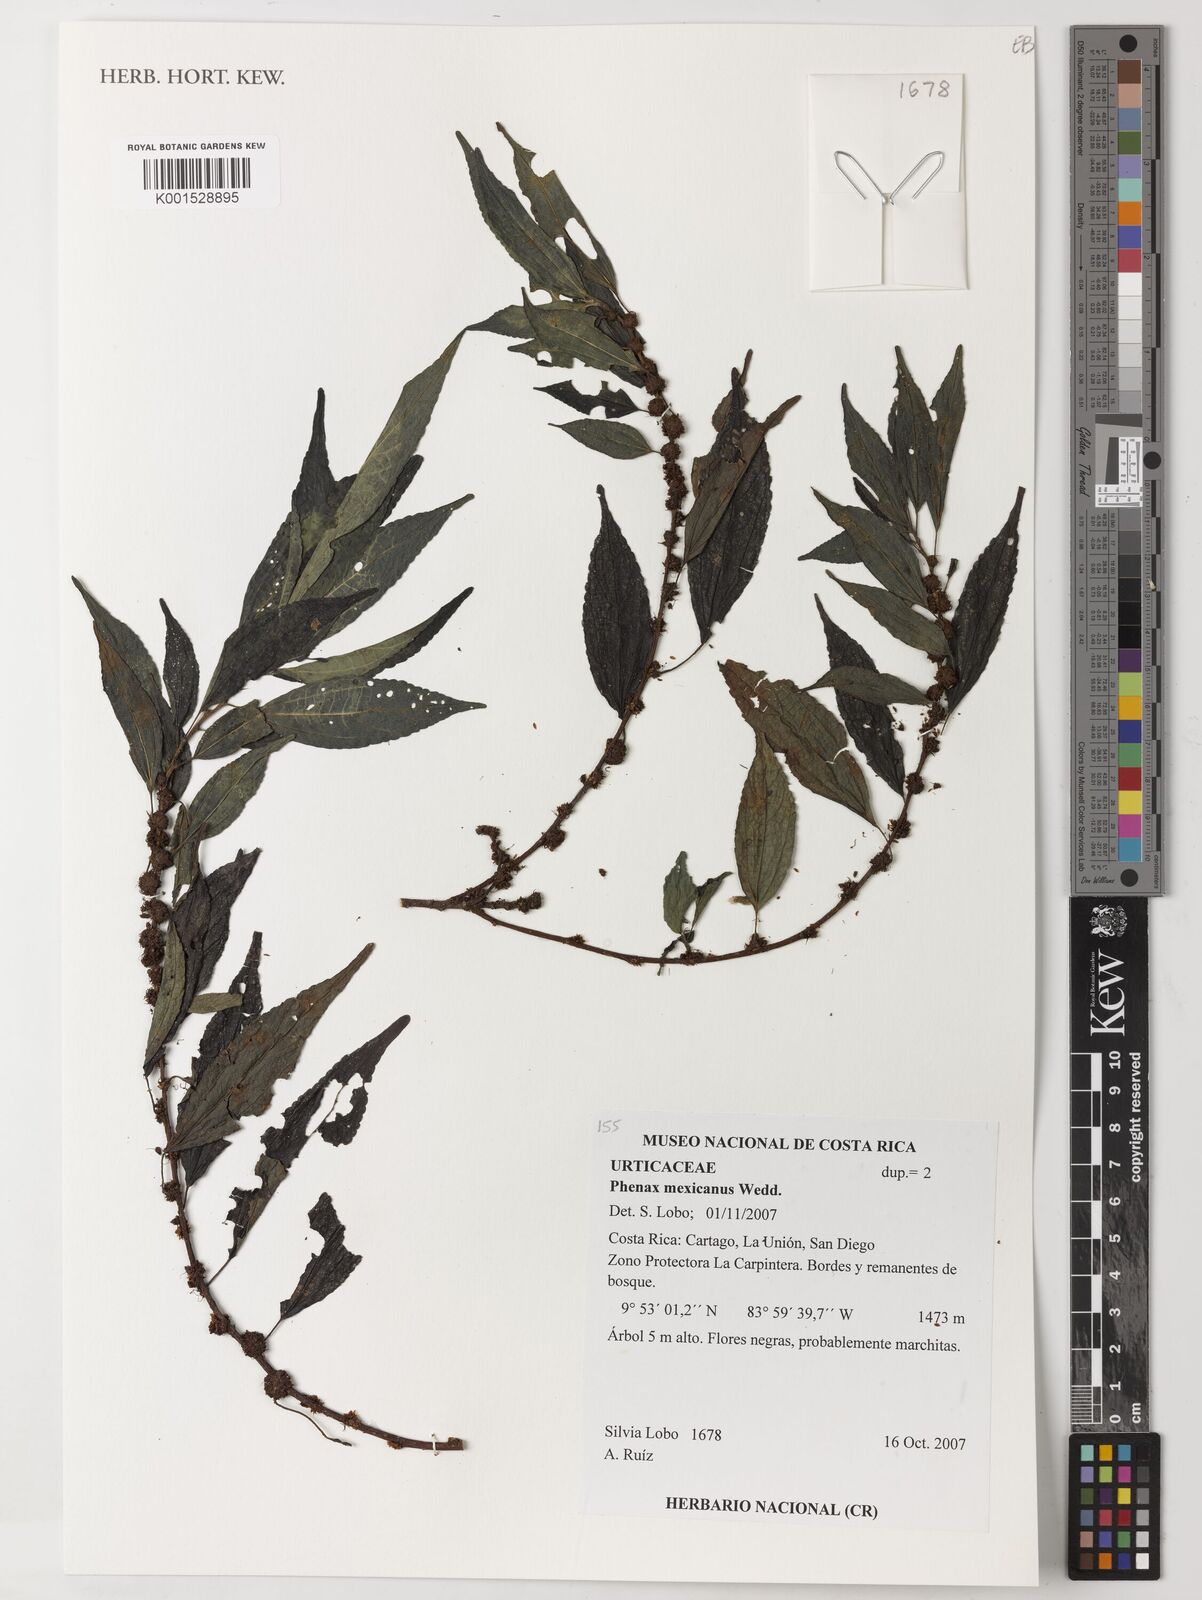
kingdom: Plantae
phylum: Tracheophyta
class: Magnoliopsida
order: Rosales
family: Urticaceae
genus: Phenax
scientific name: Phenax mexicanus
